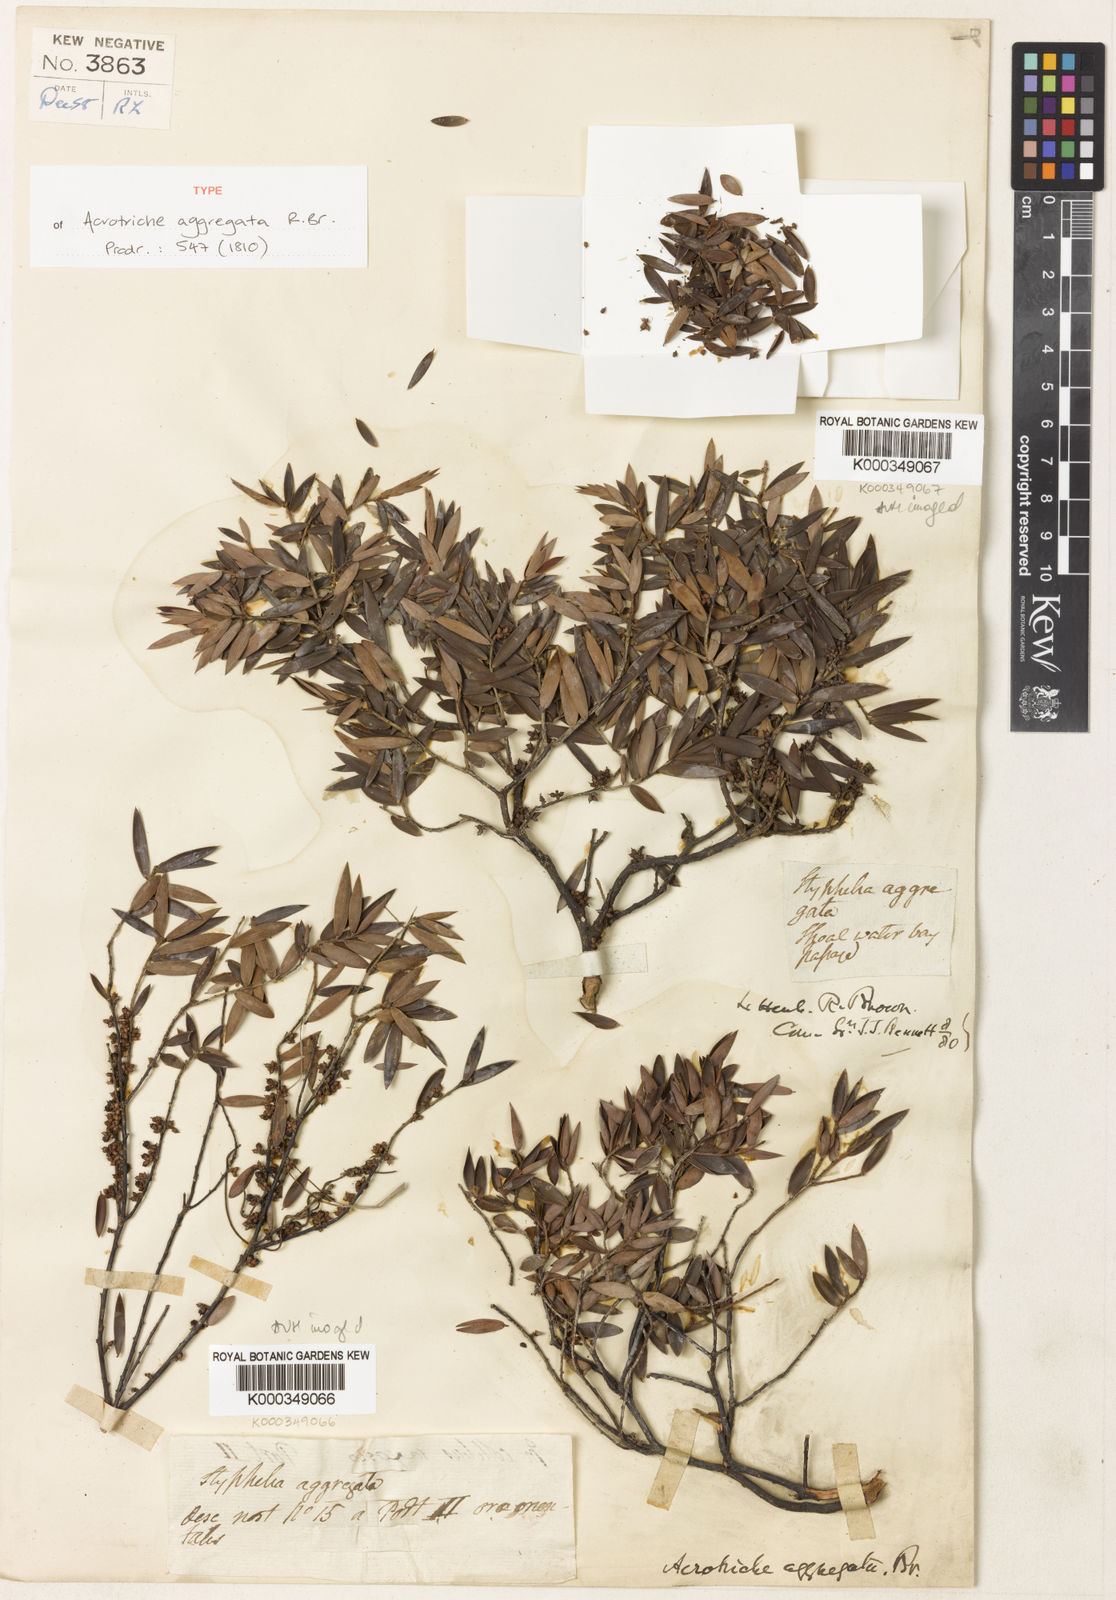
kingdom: Plantae
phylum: Tracheophyta
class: Magnoliopsida
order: Ericales
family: Ericaceae
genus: Acrotriche
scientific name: Acrotriche aggregata
